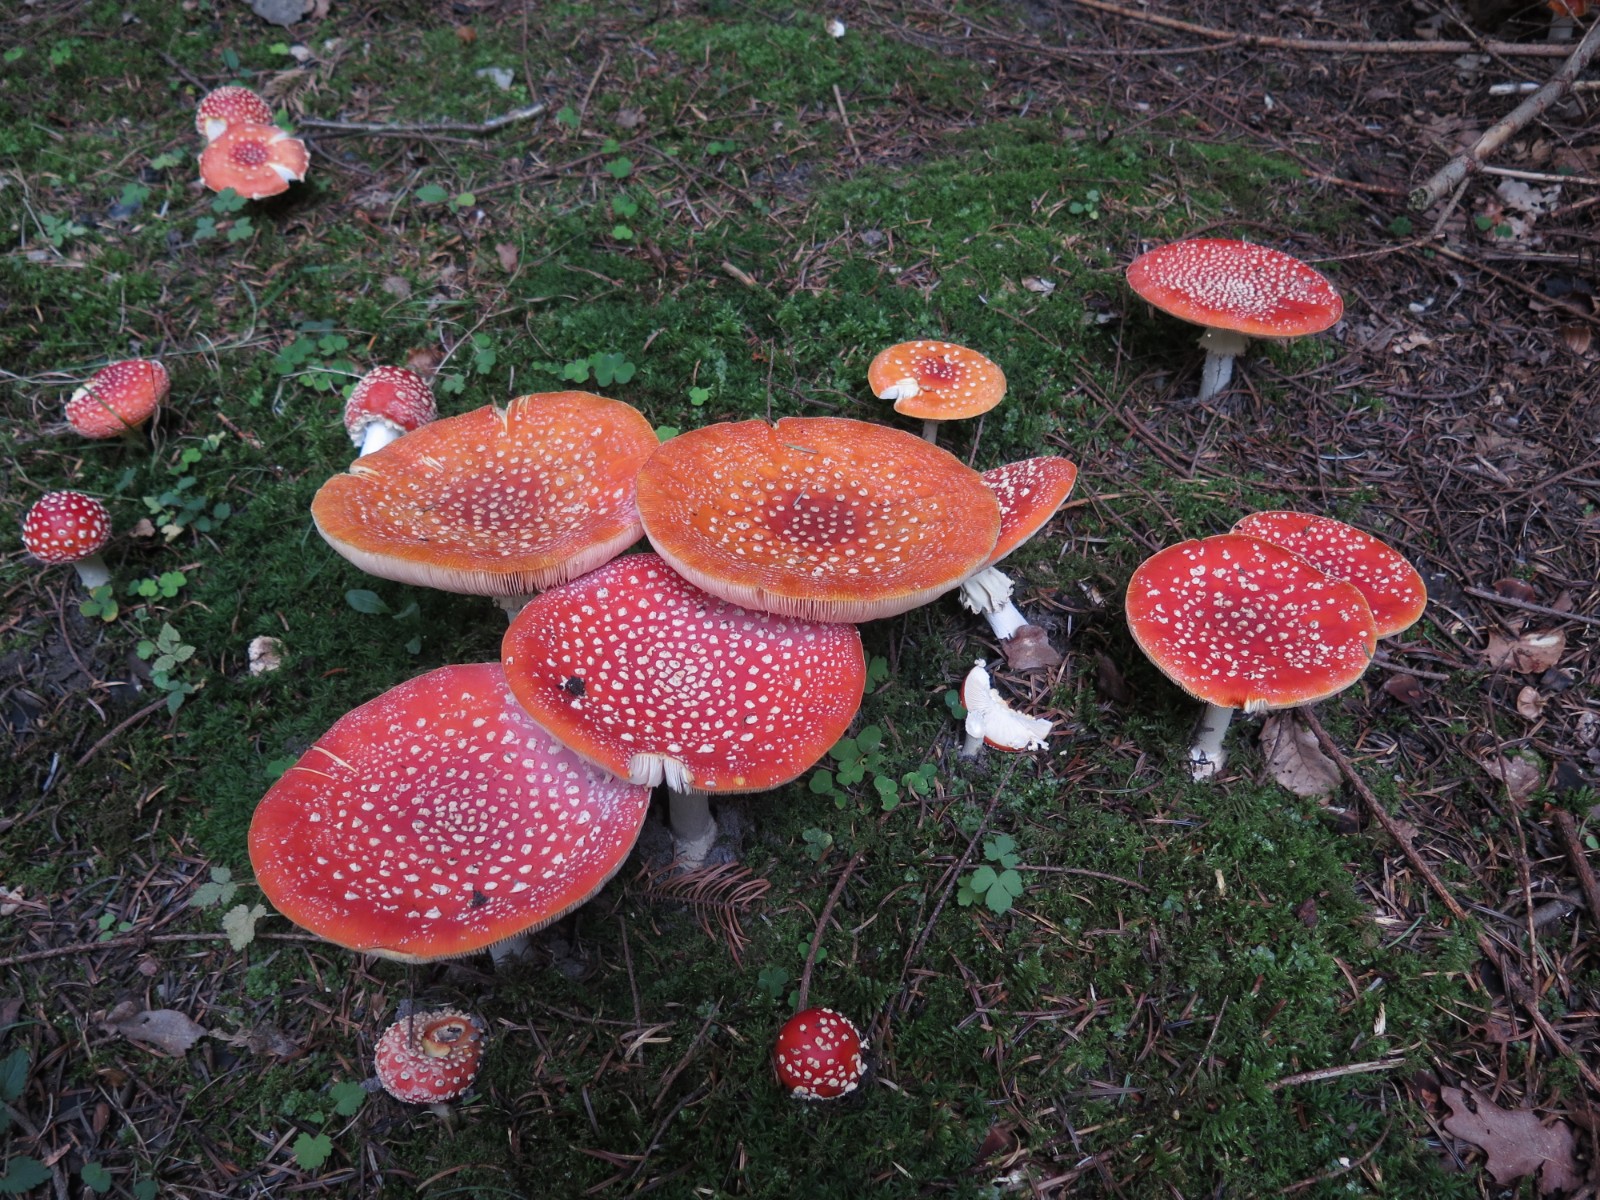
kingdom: Fungi
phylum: Basidiomycota
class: Agaricomycetes
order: Agaricales
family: Amanitaceae
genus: Amanita
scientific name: Amanita muscaria
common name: rød fluesvamp
